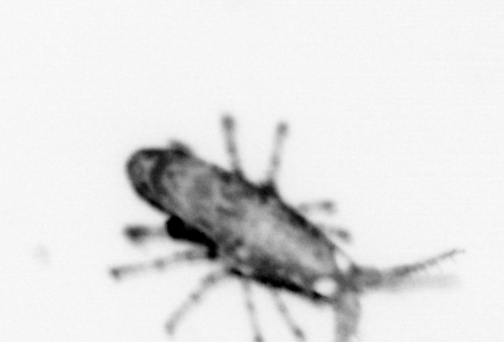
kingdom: Animalia
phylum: Arthropoda
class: Arachnida
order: Trombidiformes
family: Halacaridae
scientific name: Halacaridae
